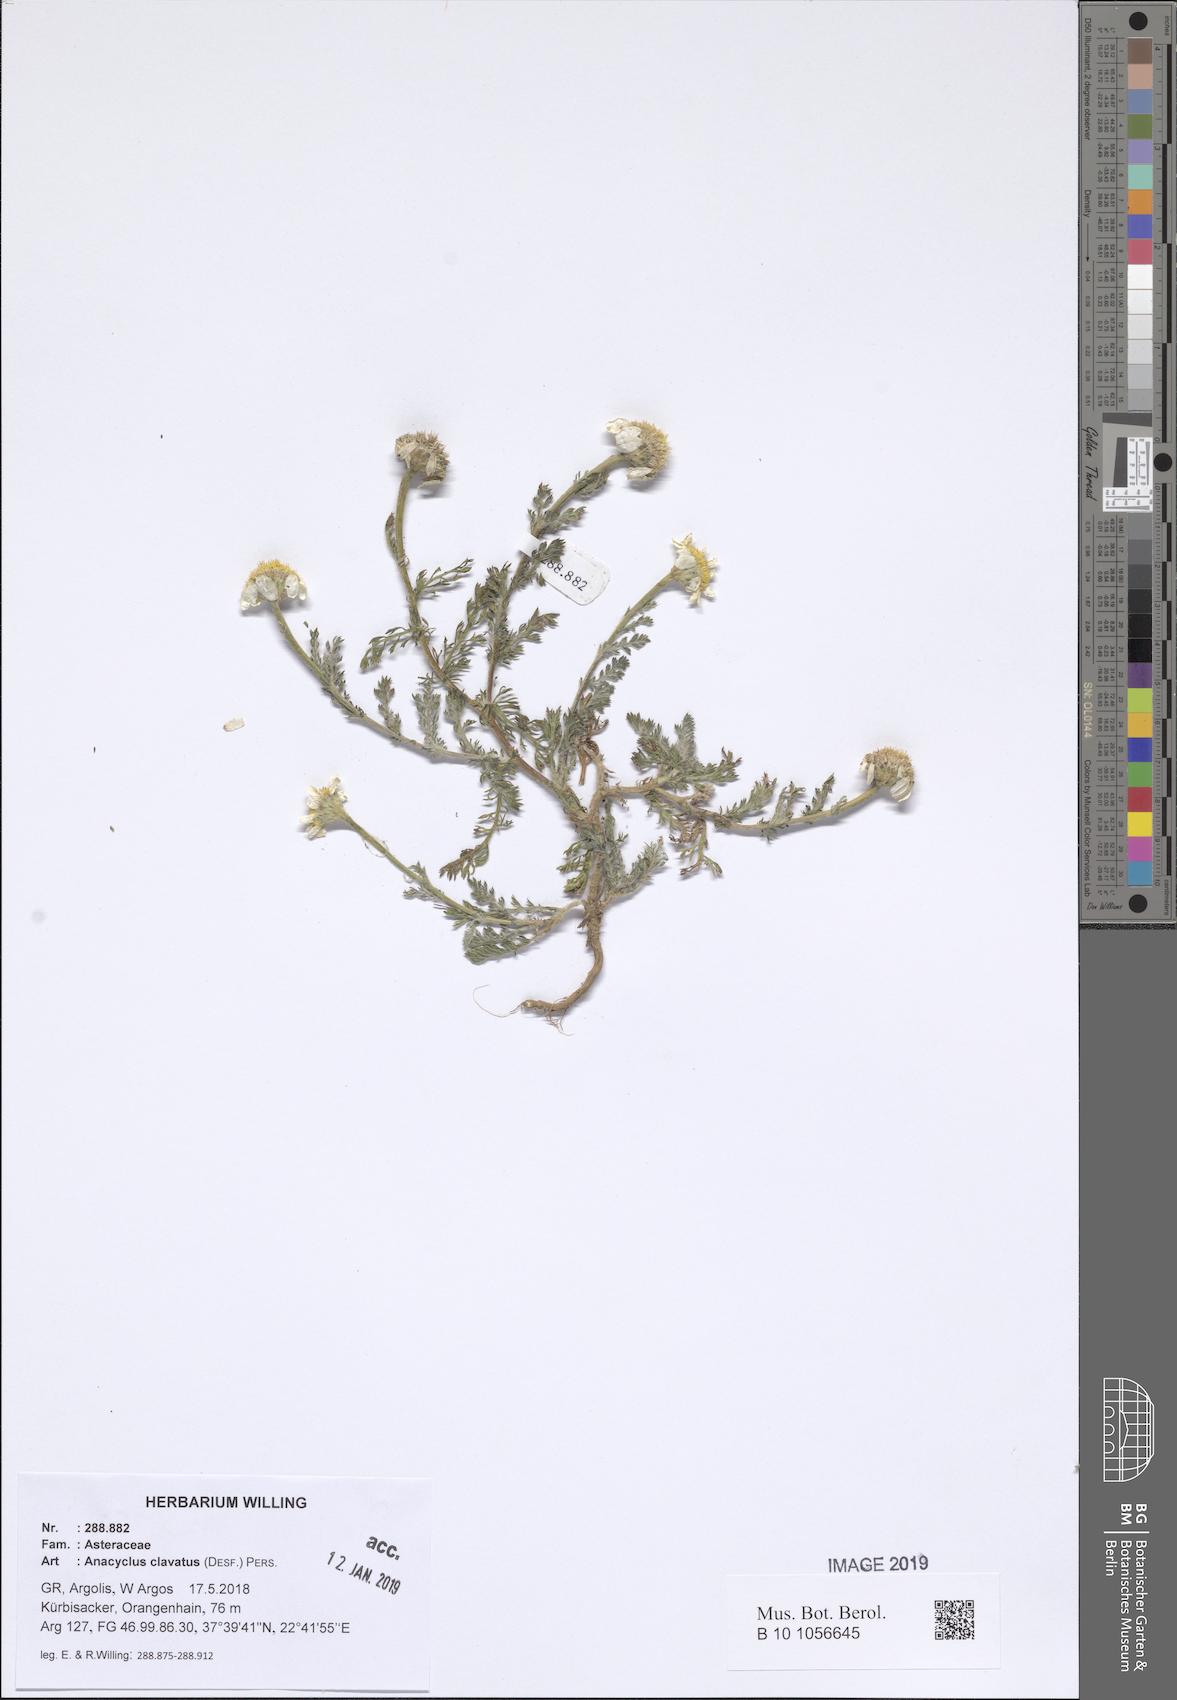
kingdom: Plantae
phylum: Tracheophyta
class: Magnoliopsida
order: Asterales
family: Asteraceae
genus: Anacyclus
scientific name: Anacyclus clavatus
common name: Whitebuttons
